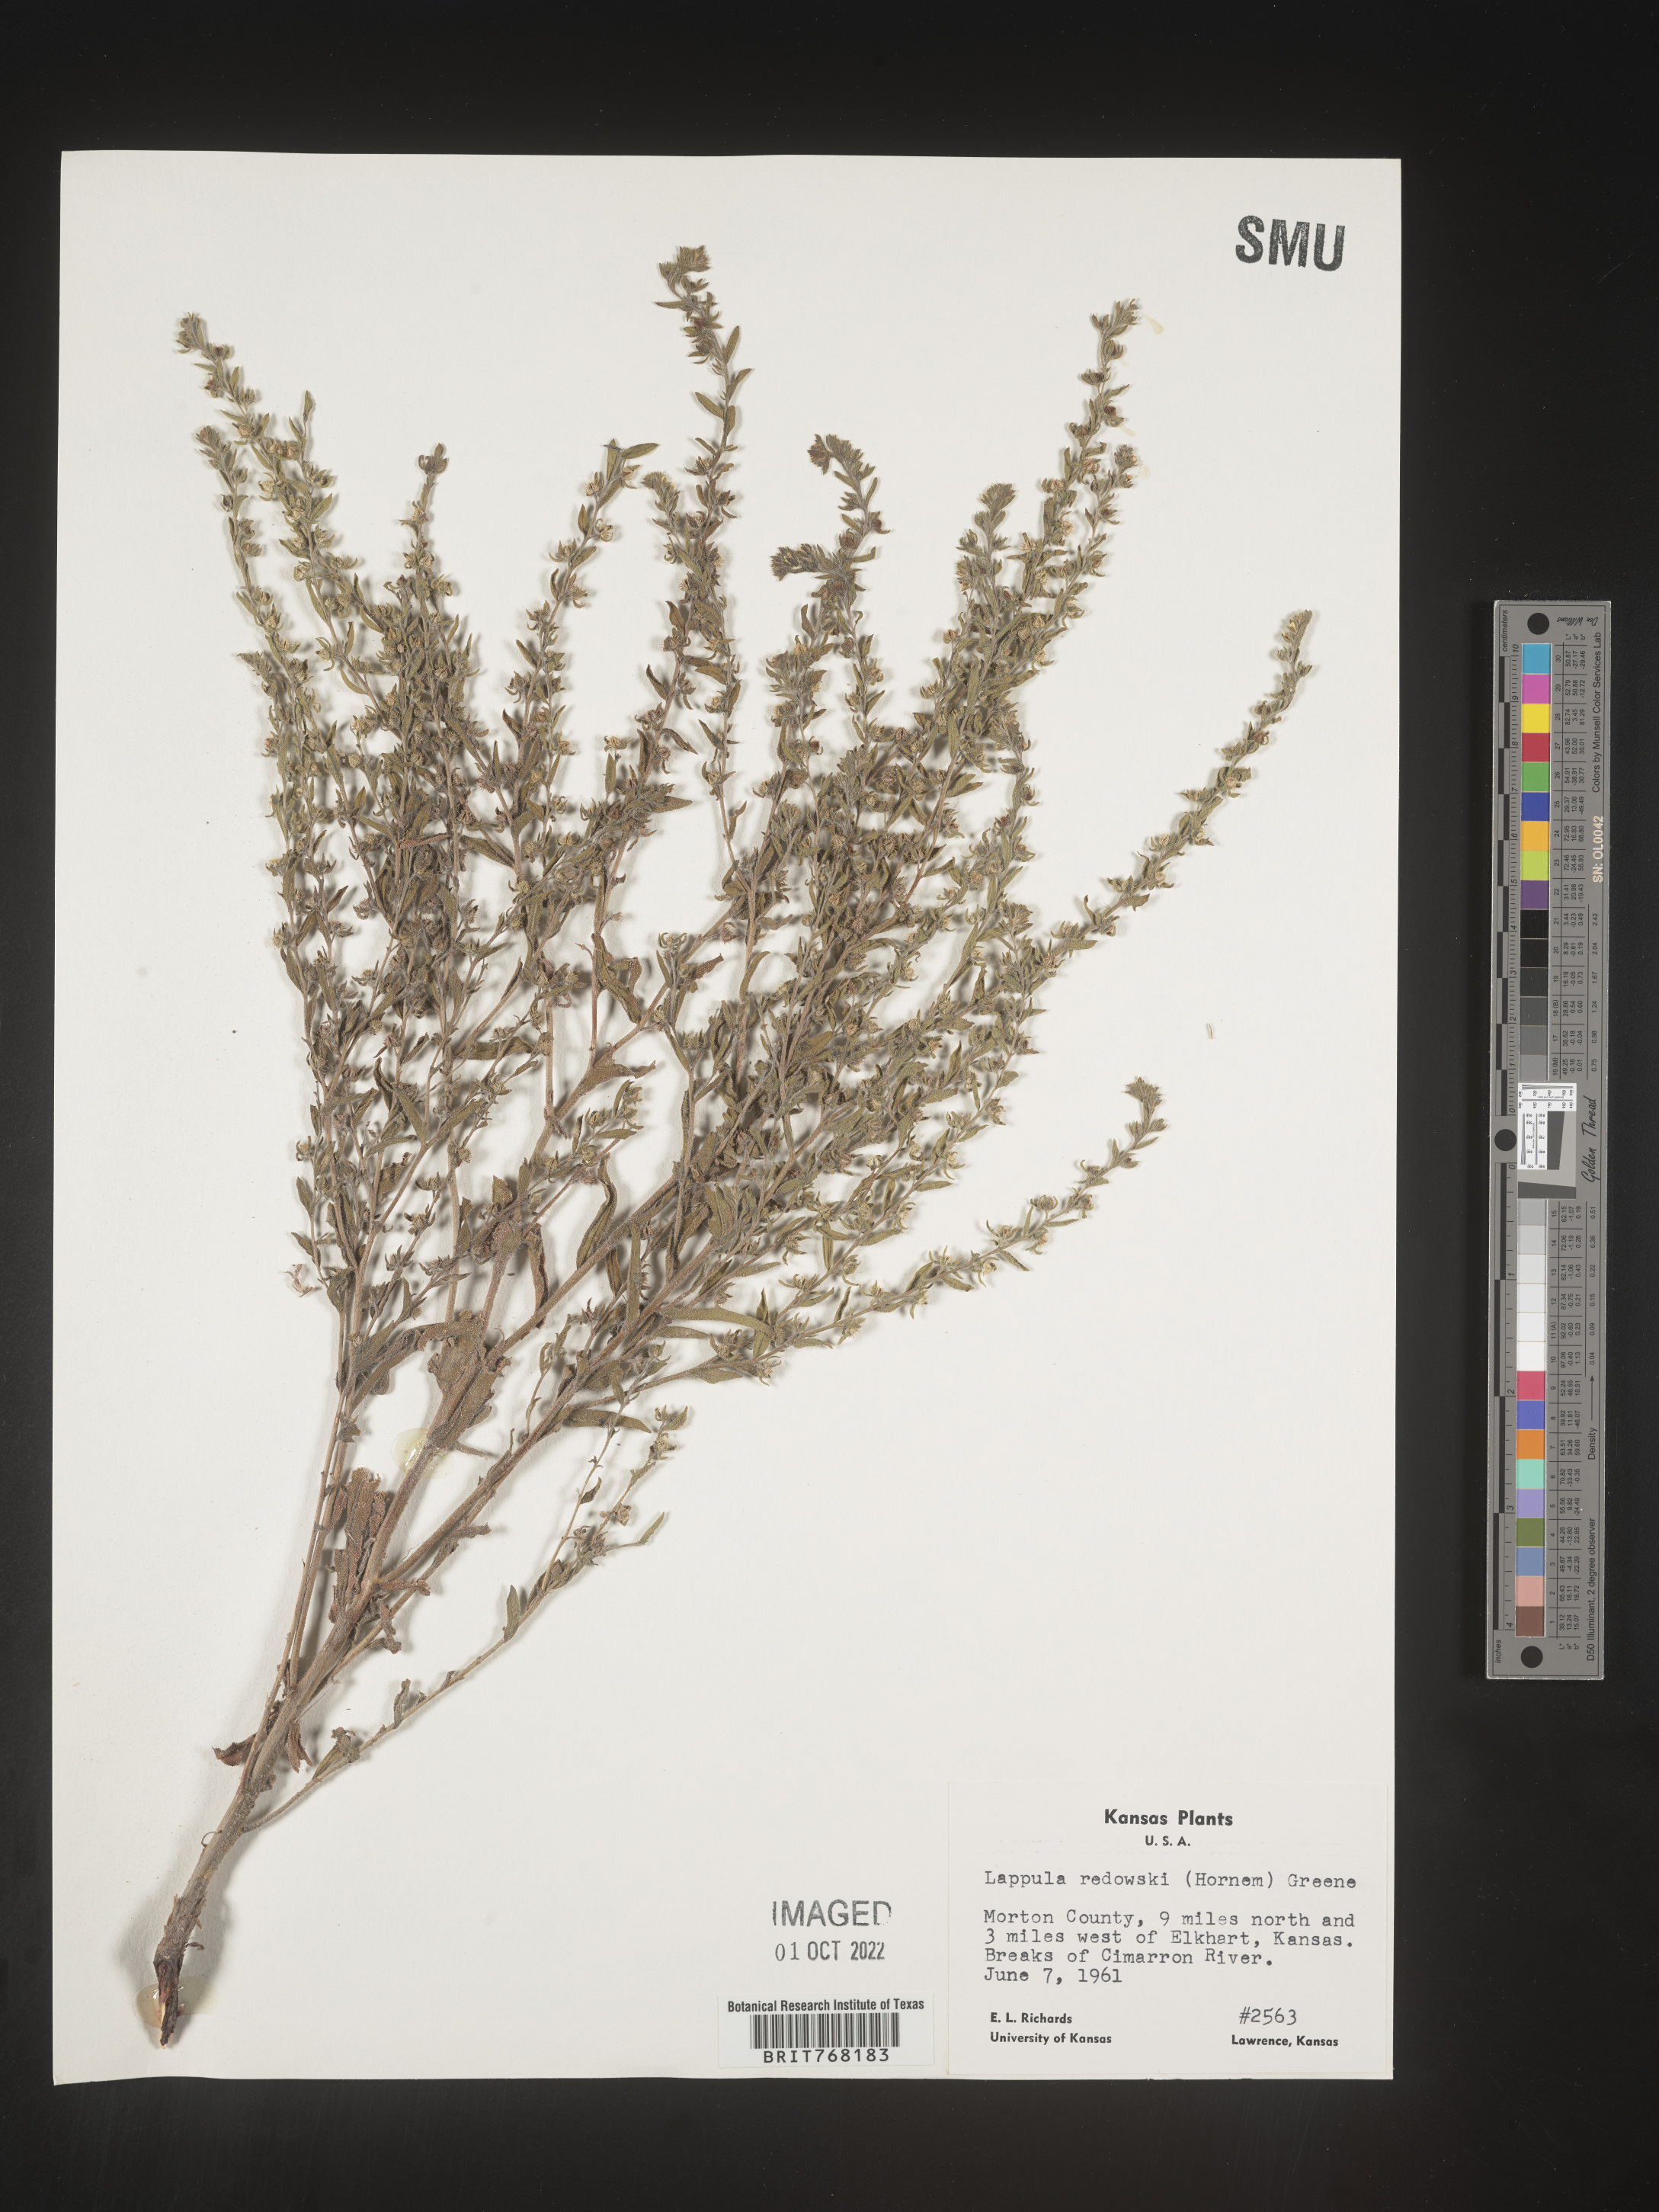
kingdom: Plantae
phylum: Tracheophyta
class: Magnoliopsida
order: Boraginales
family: Boraginaceae
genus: Lappula
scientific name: Lappula redowskii
